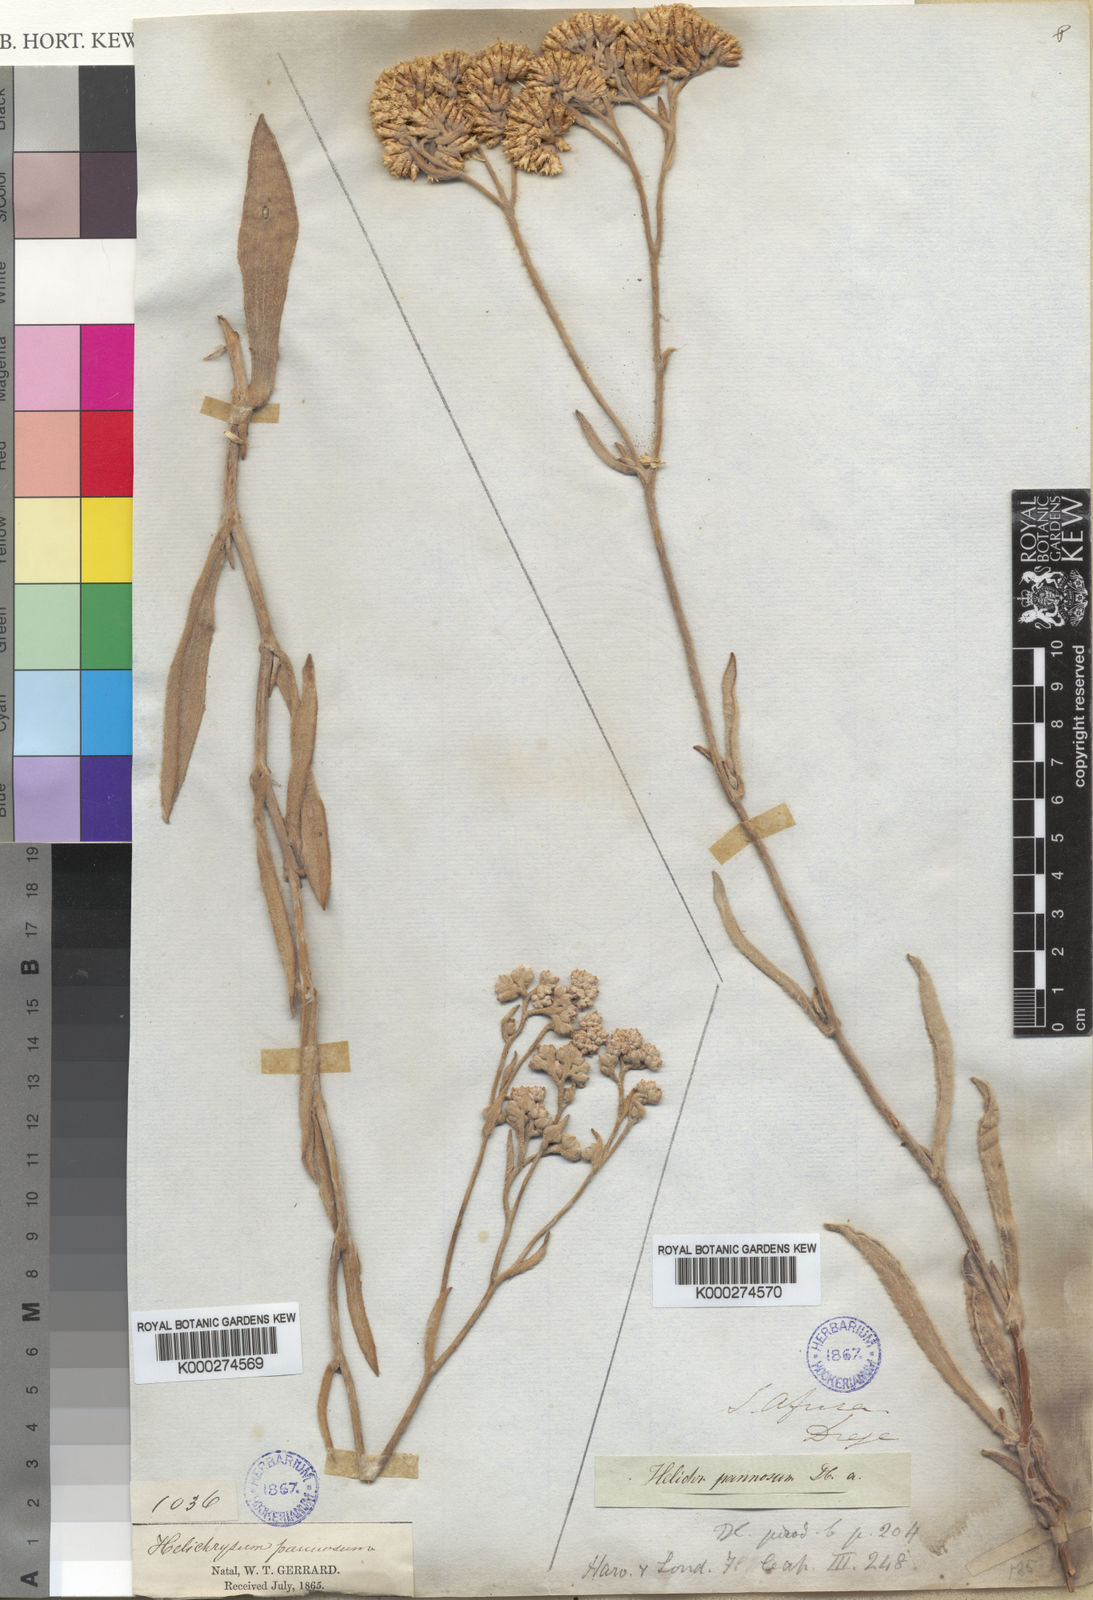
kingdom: Plantae
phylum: Tracheophyta
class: Magnoliopsida
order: Asterales
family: Asteraceae
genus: Helichrysum
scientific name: Helichrysum pannosum
